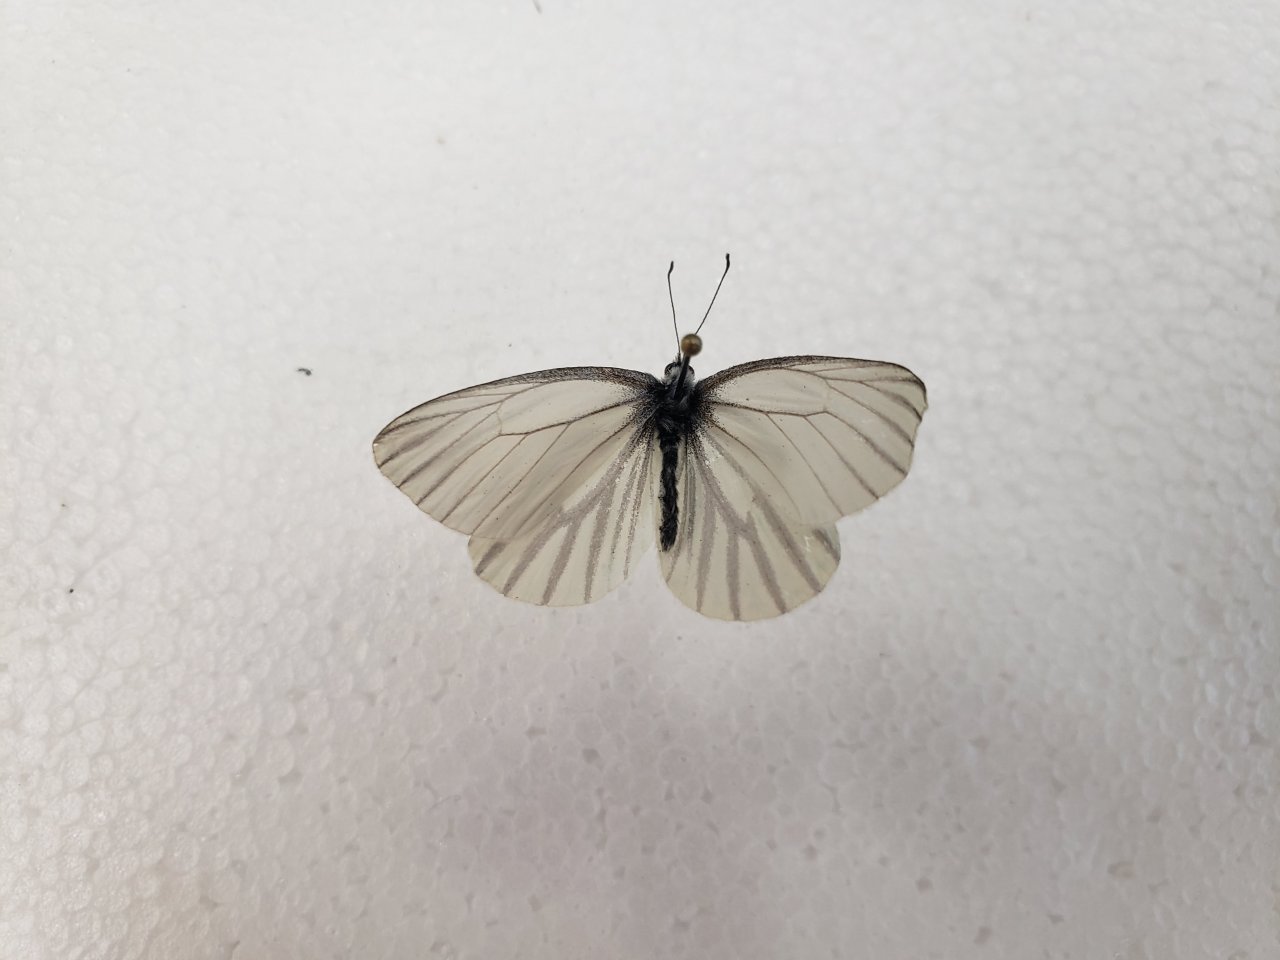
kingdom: Animalia
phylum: Arthropoda
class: Insecta
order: Lepidoptera
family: Pieridae
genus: Pieris
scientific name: Pieris oleracea
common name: Mustard White
